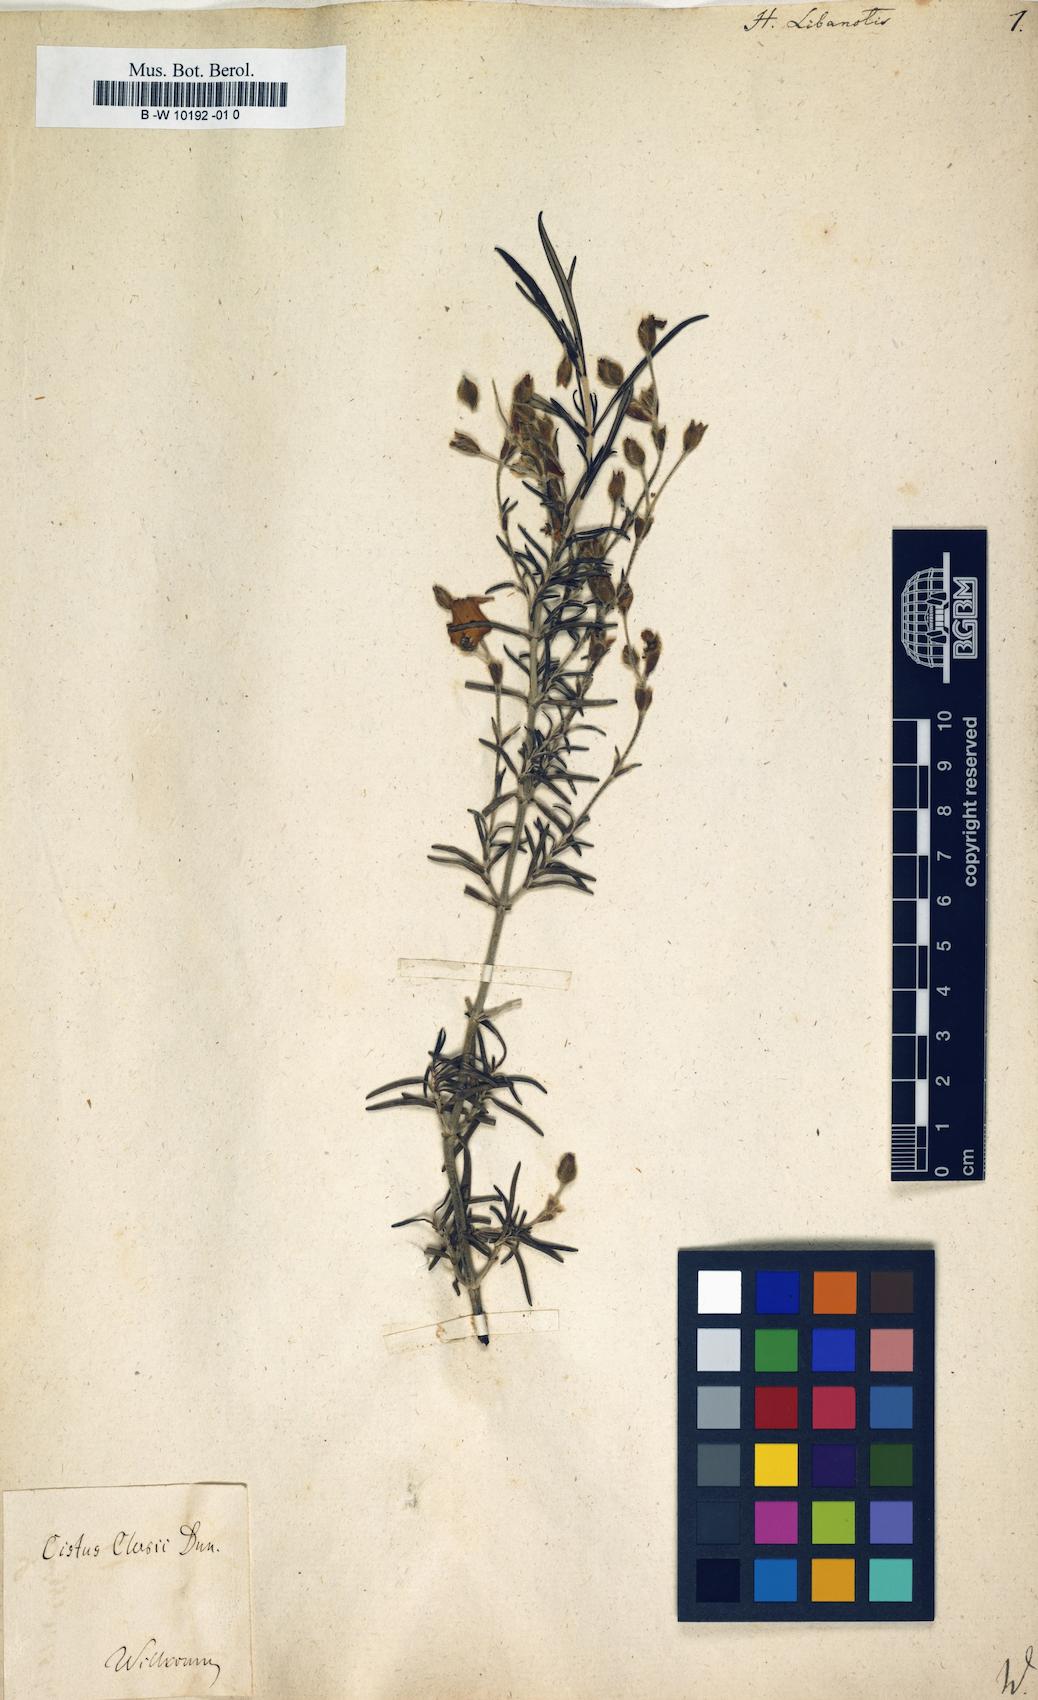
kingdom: Plantae
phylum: Tracheophyta
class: Magnoliopsida
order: Malvales
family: Cistaceae
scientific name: Cistaceae
